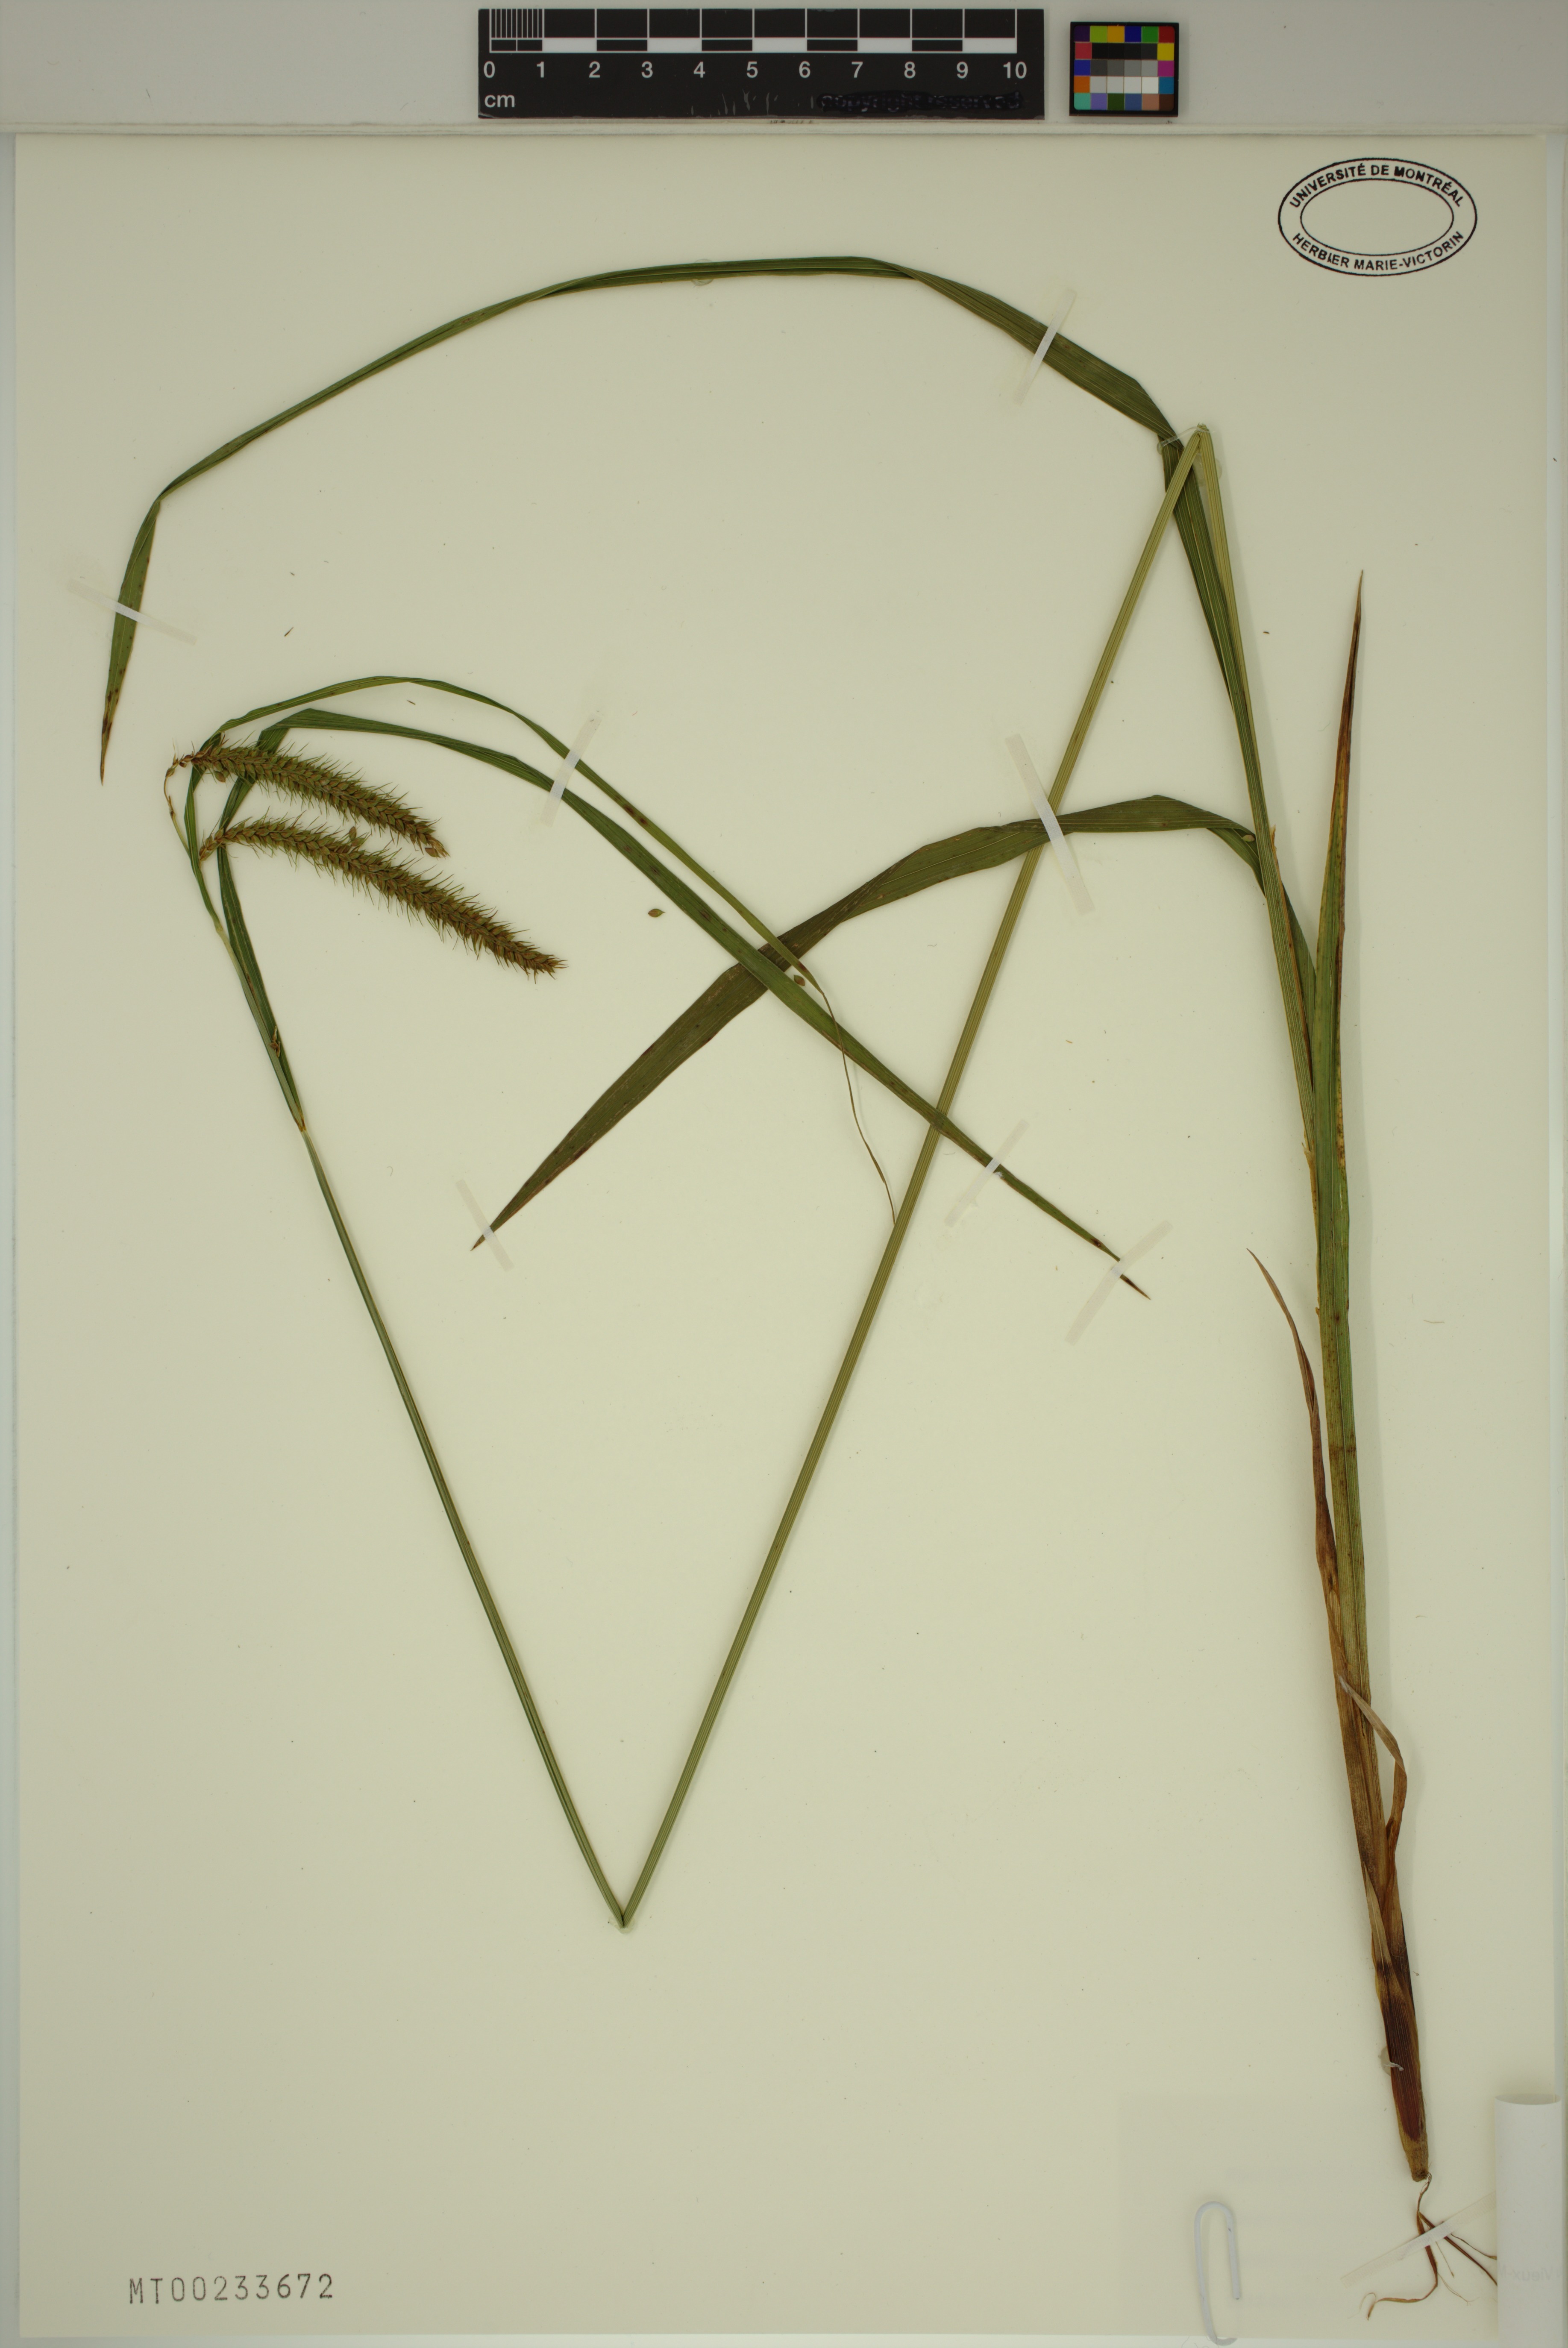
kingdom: Plantae
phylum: Tracheophyta
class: Liliopsida
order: Poales
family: Cyperaceae
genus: Carex
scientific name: Carex crinita
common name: Fringed sedge
